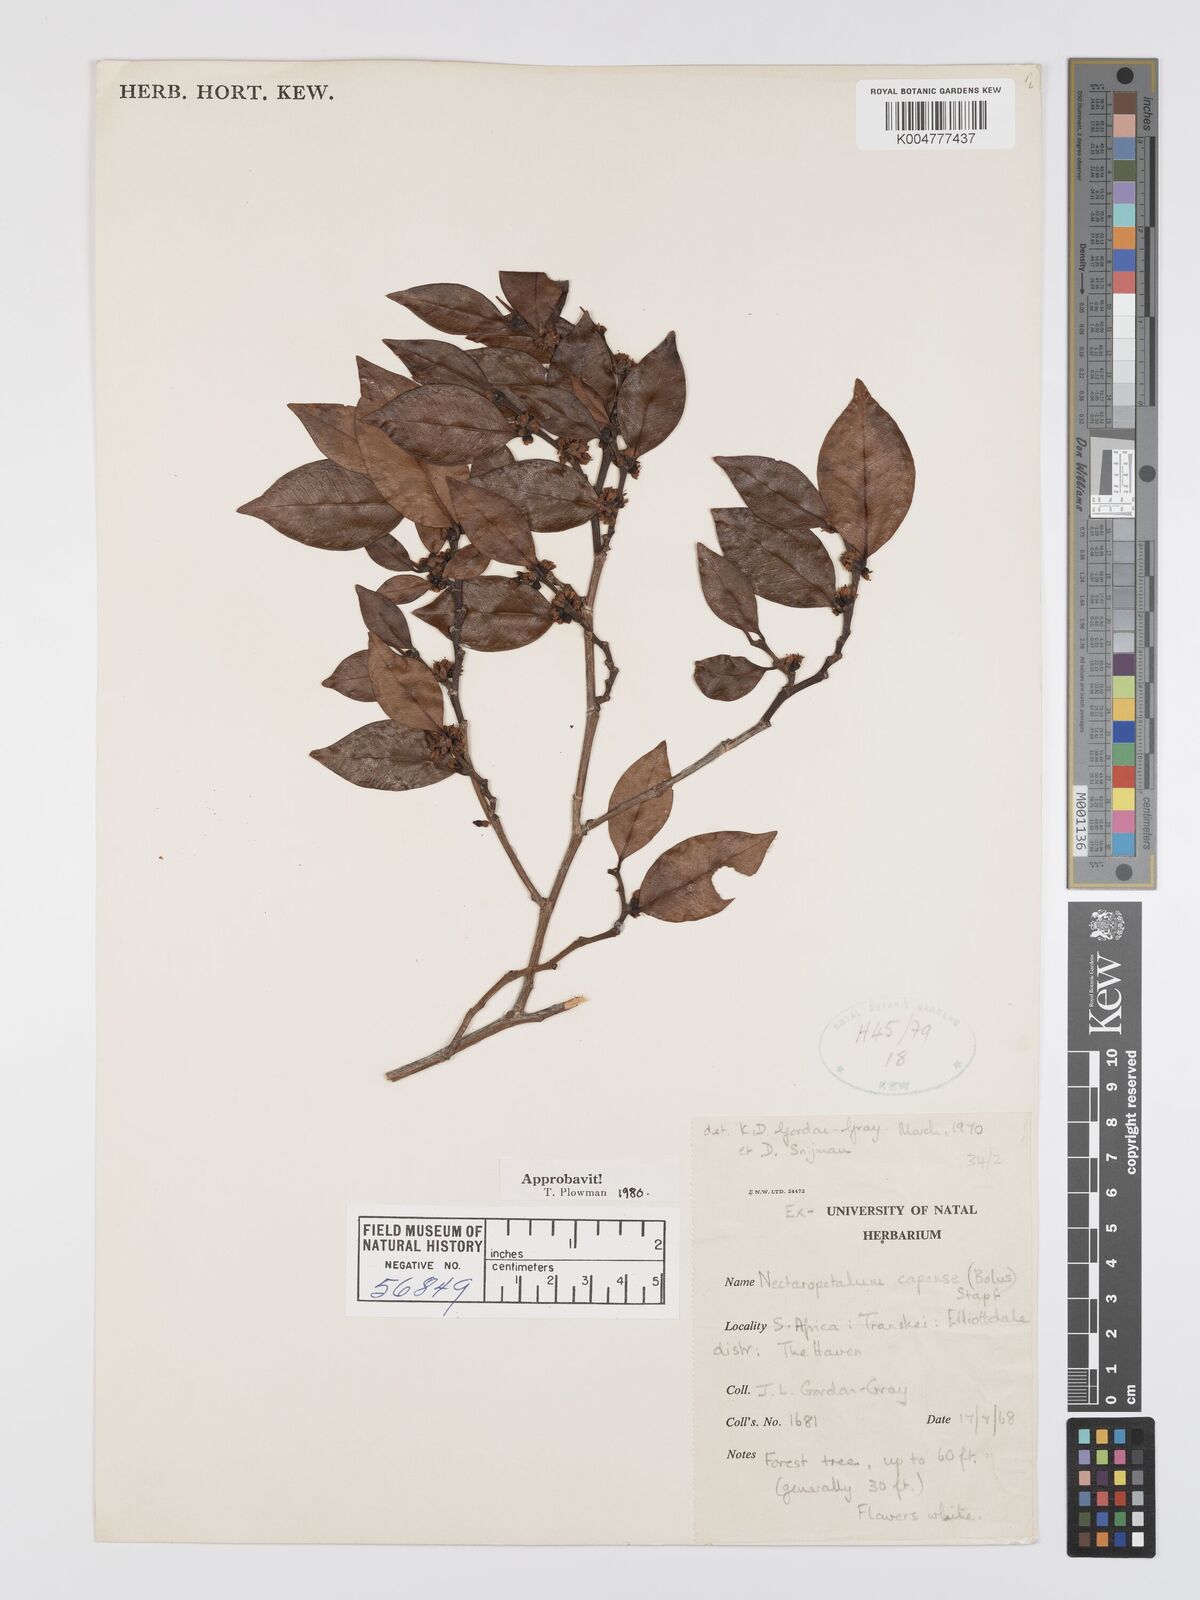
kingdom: Plantae
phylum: Tracheophyta
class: Magnoliopsida
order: Malpighiales
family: Erythroxylaceae
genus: Nectaropetalum
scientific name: Nectaropetalum capense
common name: Southern false coca-tree
